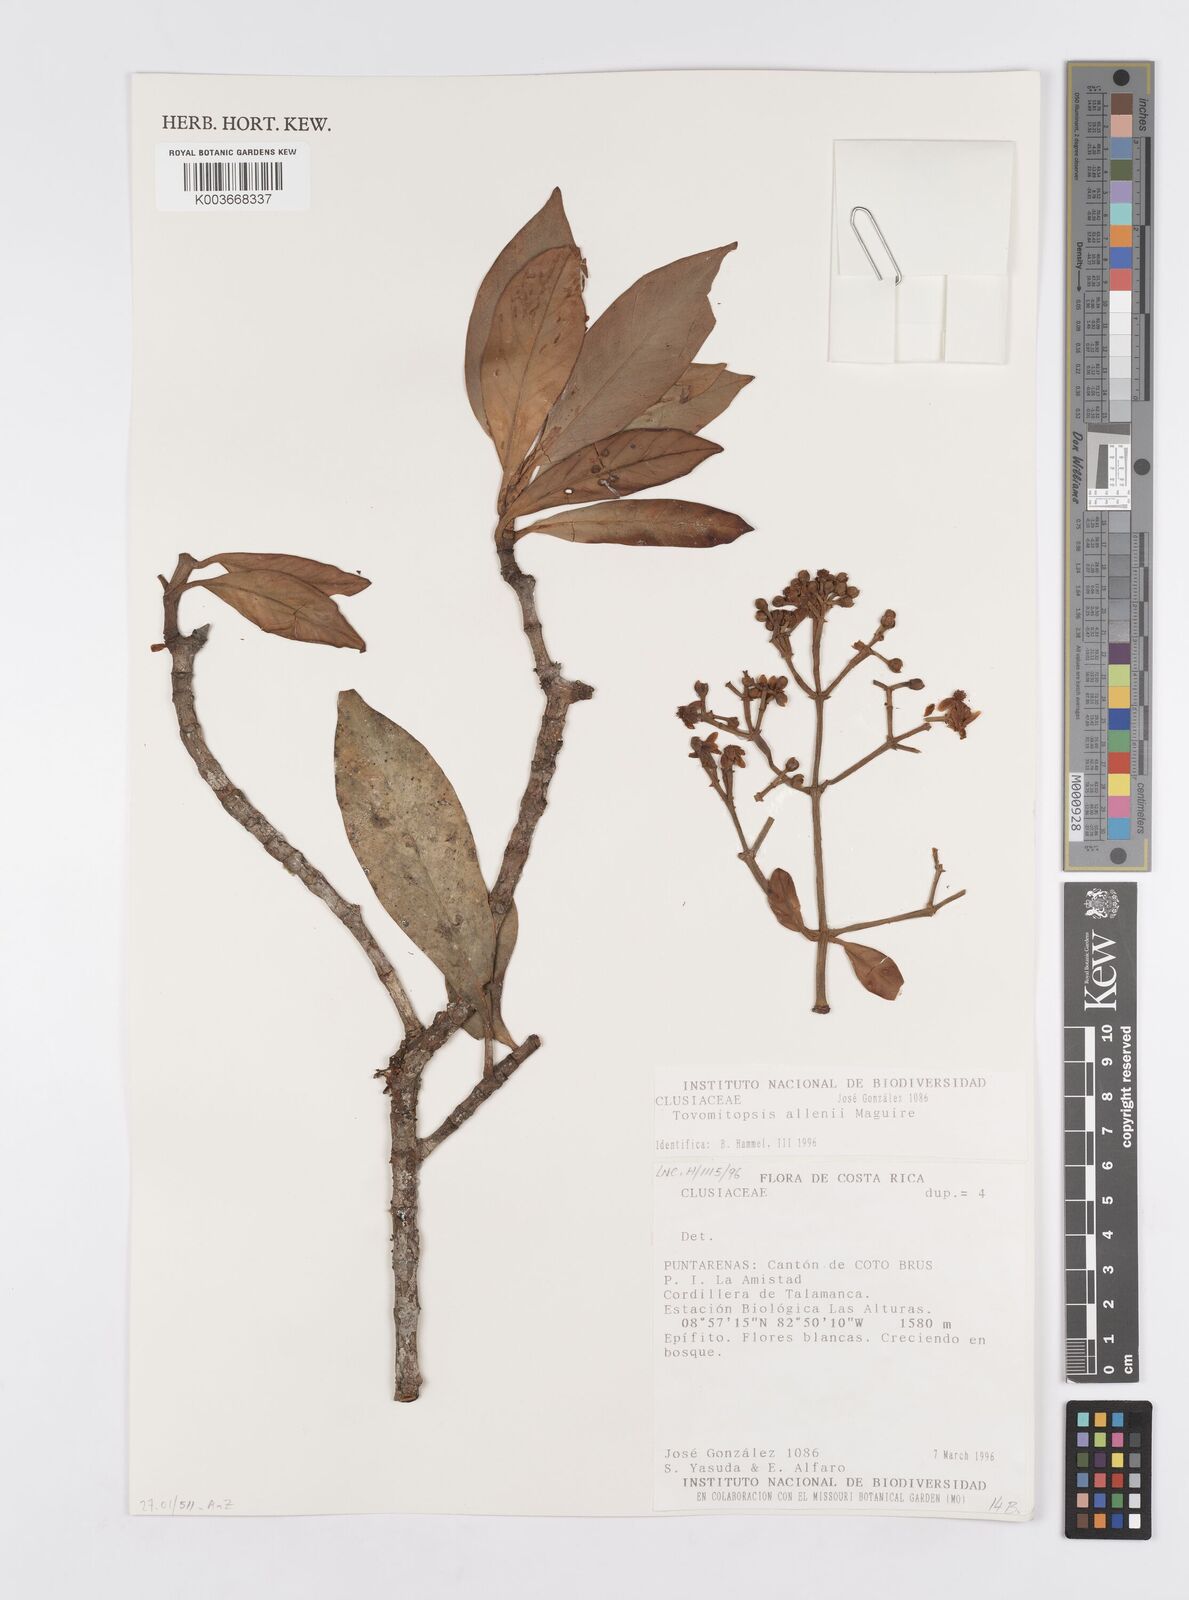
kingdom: Plantae
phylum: Tracheophyta
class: Magnoliopsida
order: Malpighiales
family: Clusiaceae
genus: Chrysochlamys
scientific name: Chrysochlamys allenii
